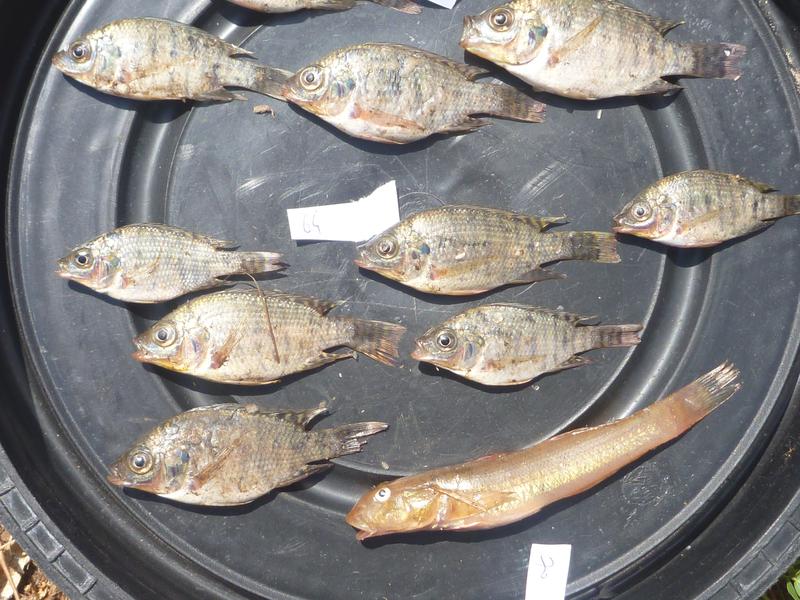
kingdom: Animalia
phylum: Chordata
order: Perciformes
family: Cichlidae
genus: Oreochromis
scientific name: Oreochromis niloticus
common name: Nile tilapia
